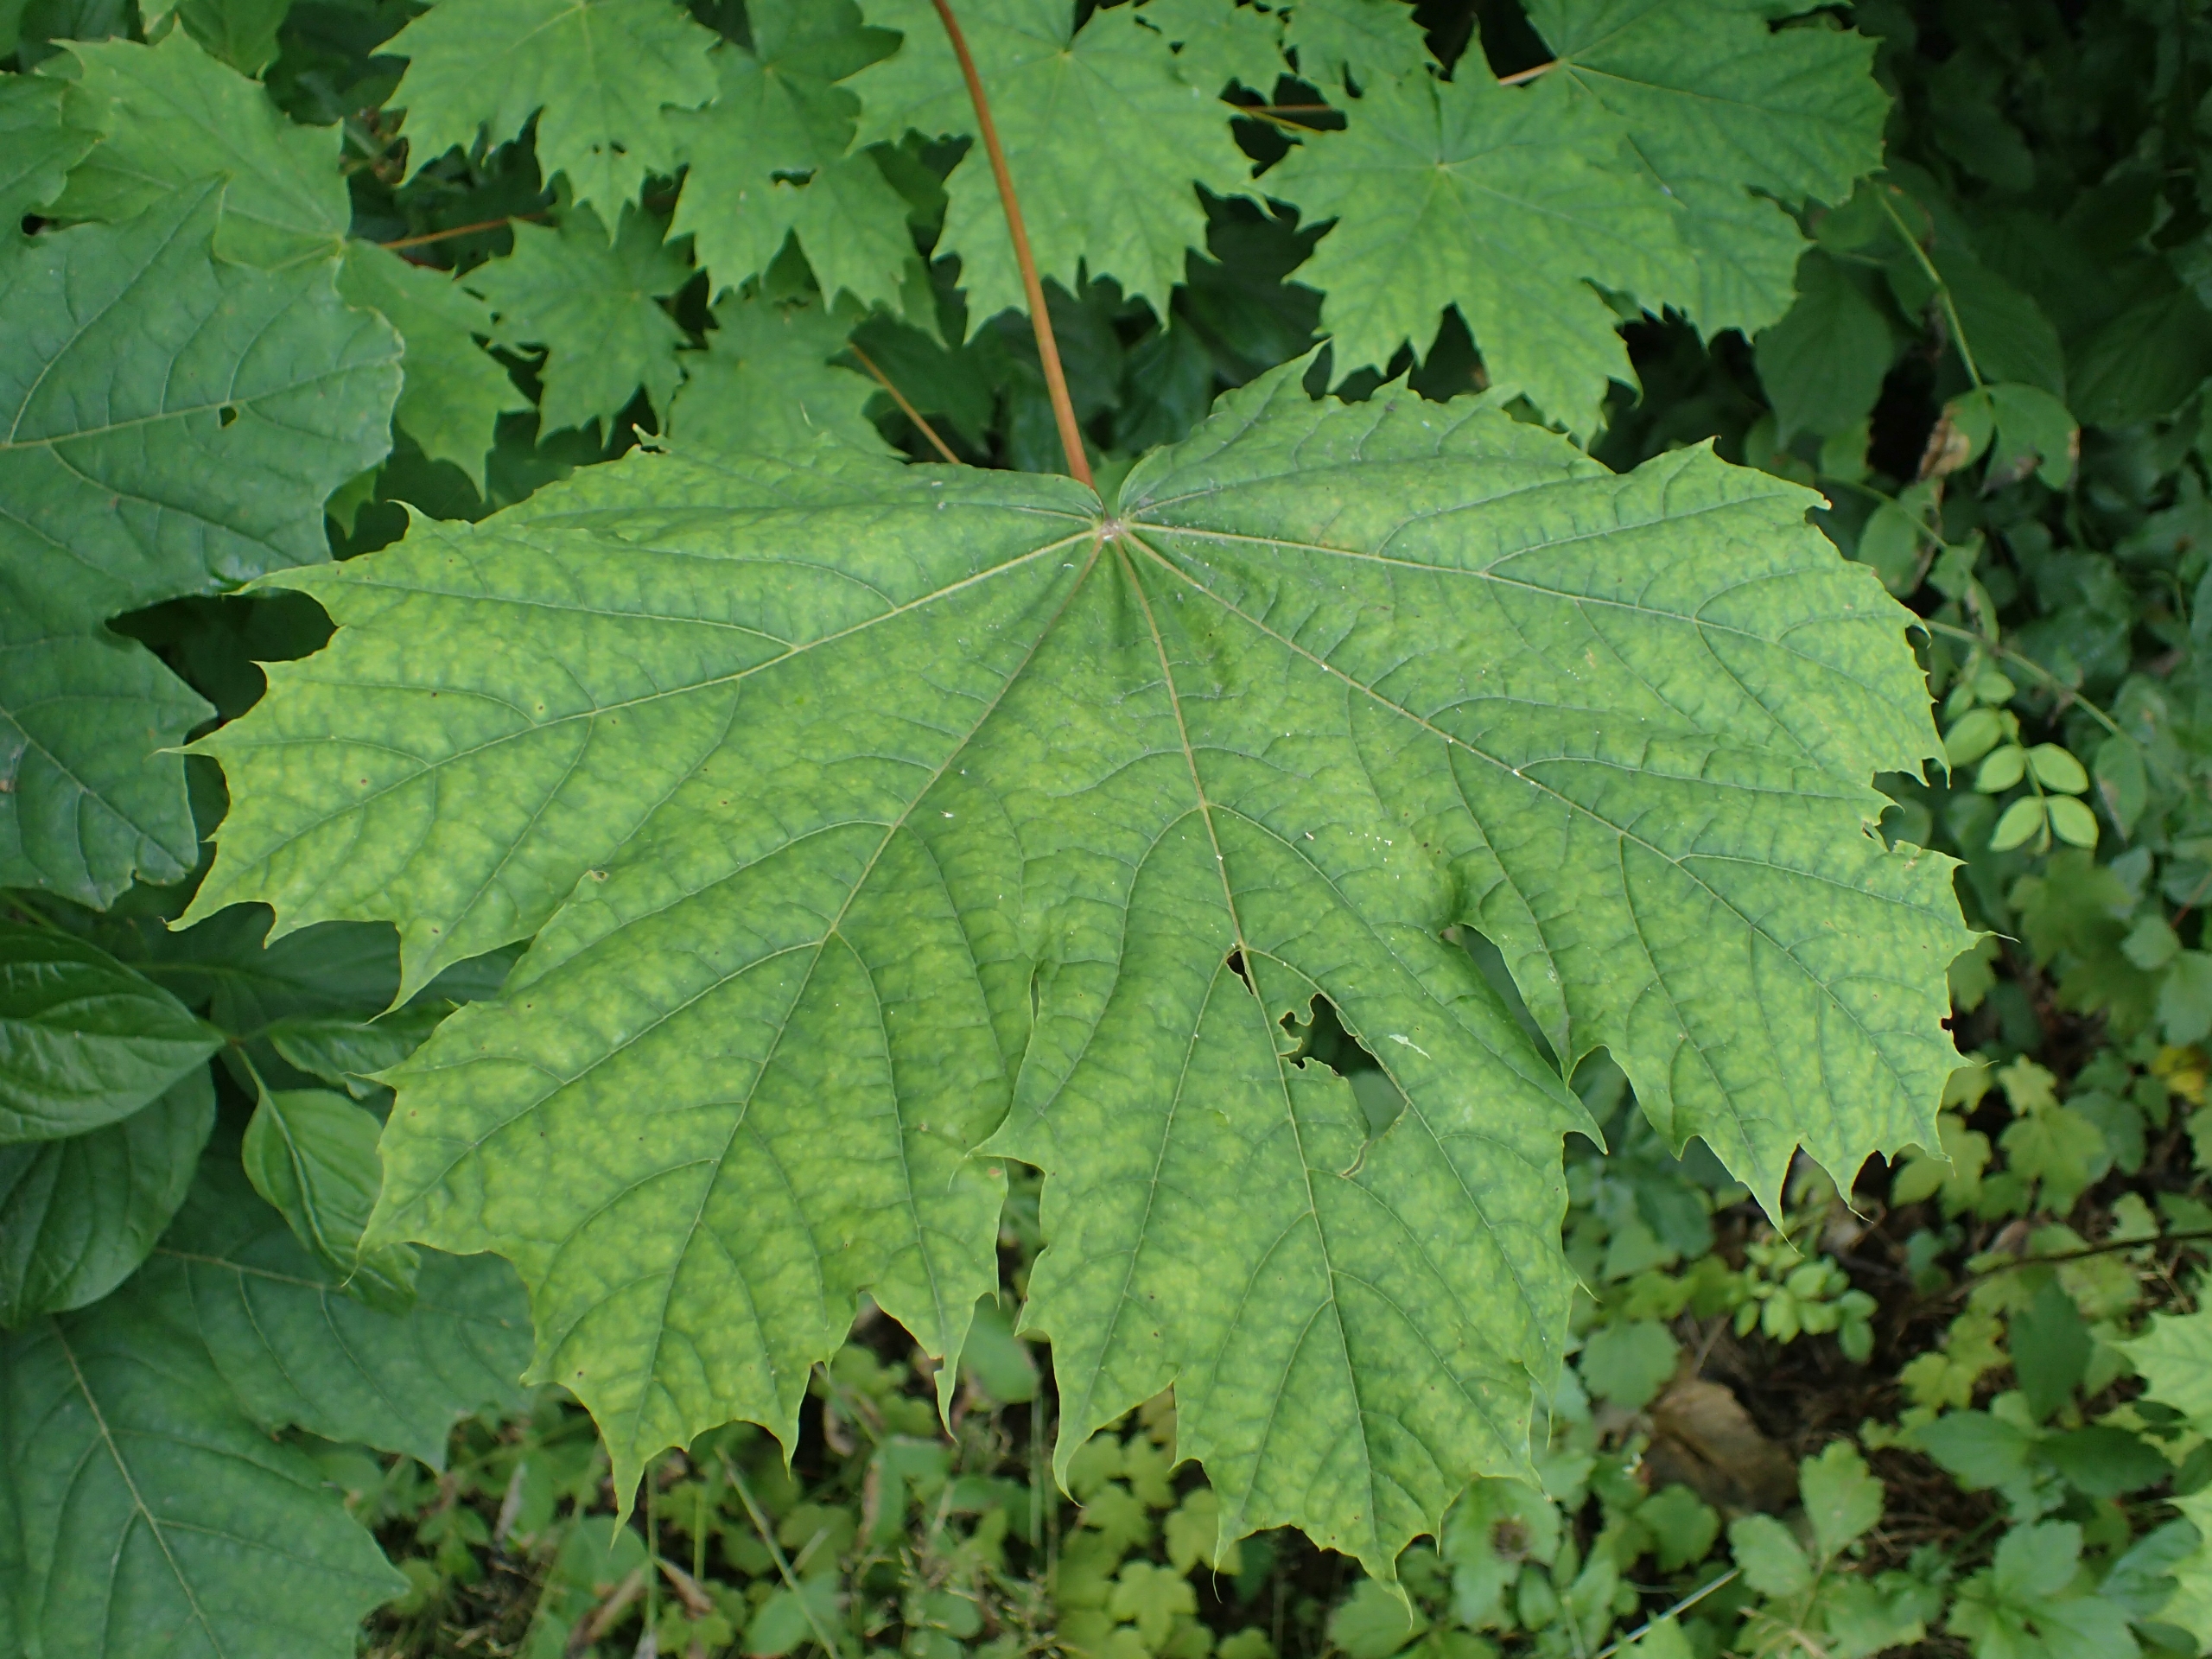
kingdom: Plantae
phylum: Tracheophyta
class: Magnoliopsida
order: Sapindales
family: Sapindaceae
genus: Acer
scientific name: Acer platanoides
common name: Spids-løn
